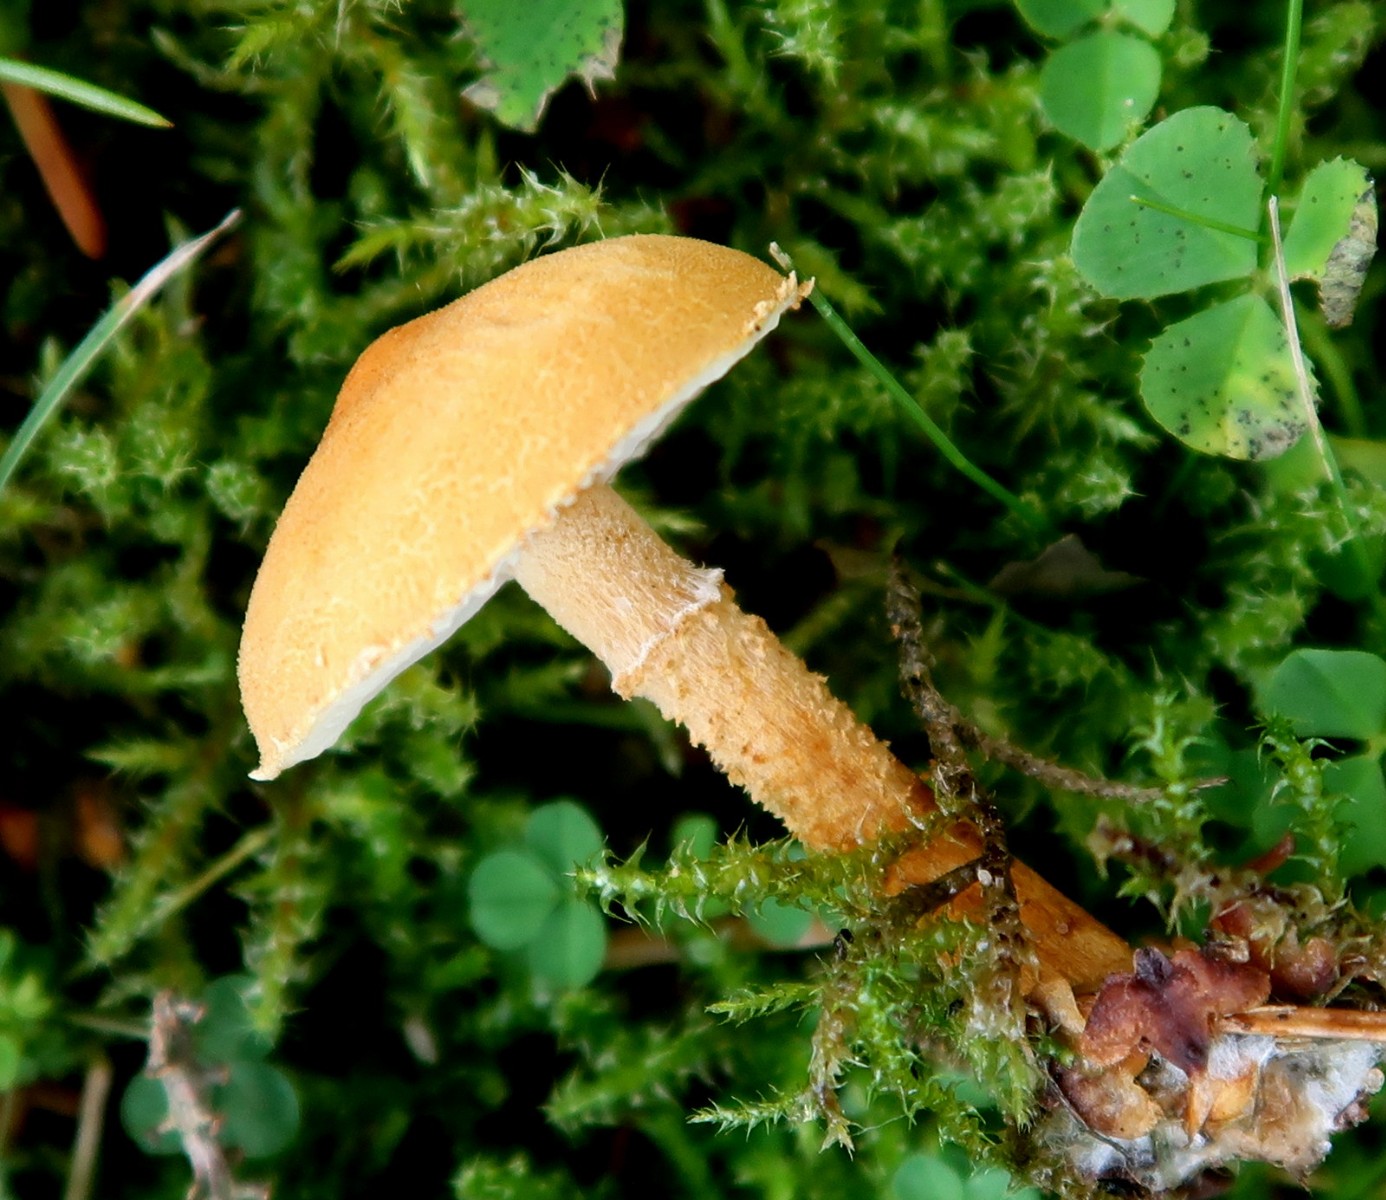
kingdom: Fungi
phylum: Basidiomycota
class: Agaricomycetes
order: Agaricales
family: Tricholomataceae
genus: Cystoderma
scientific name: Cystoderma amianthinum
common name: okkergul grynhat
